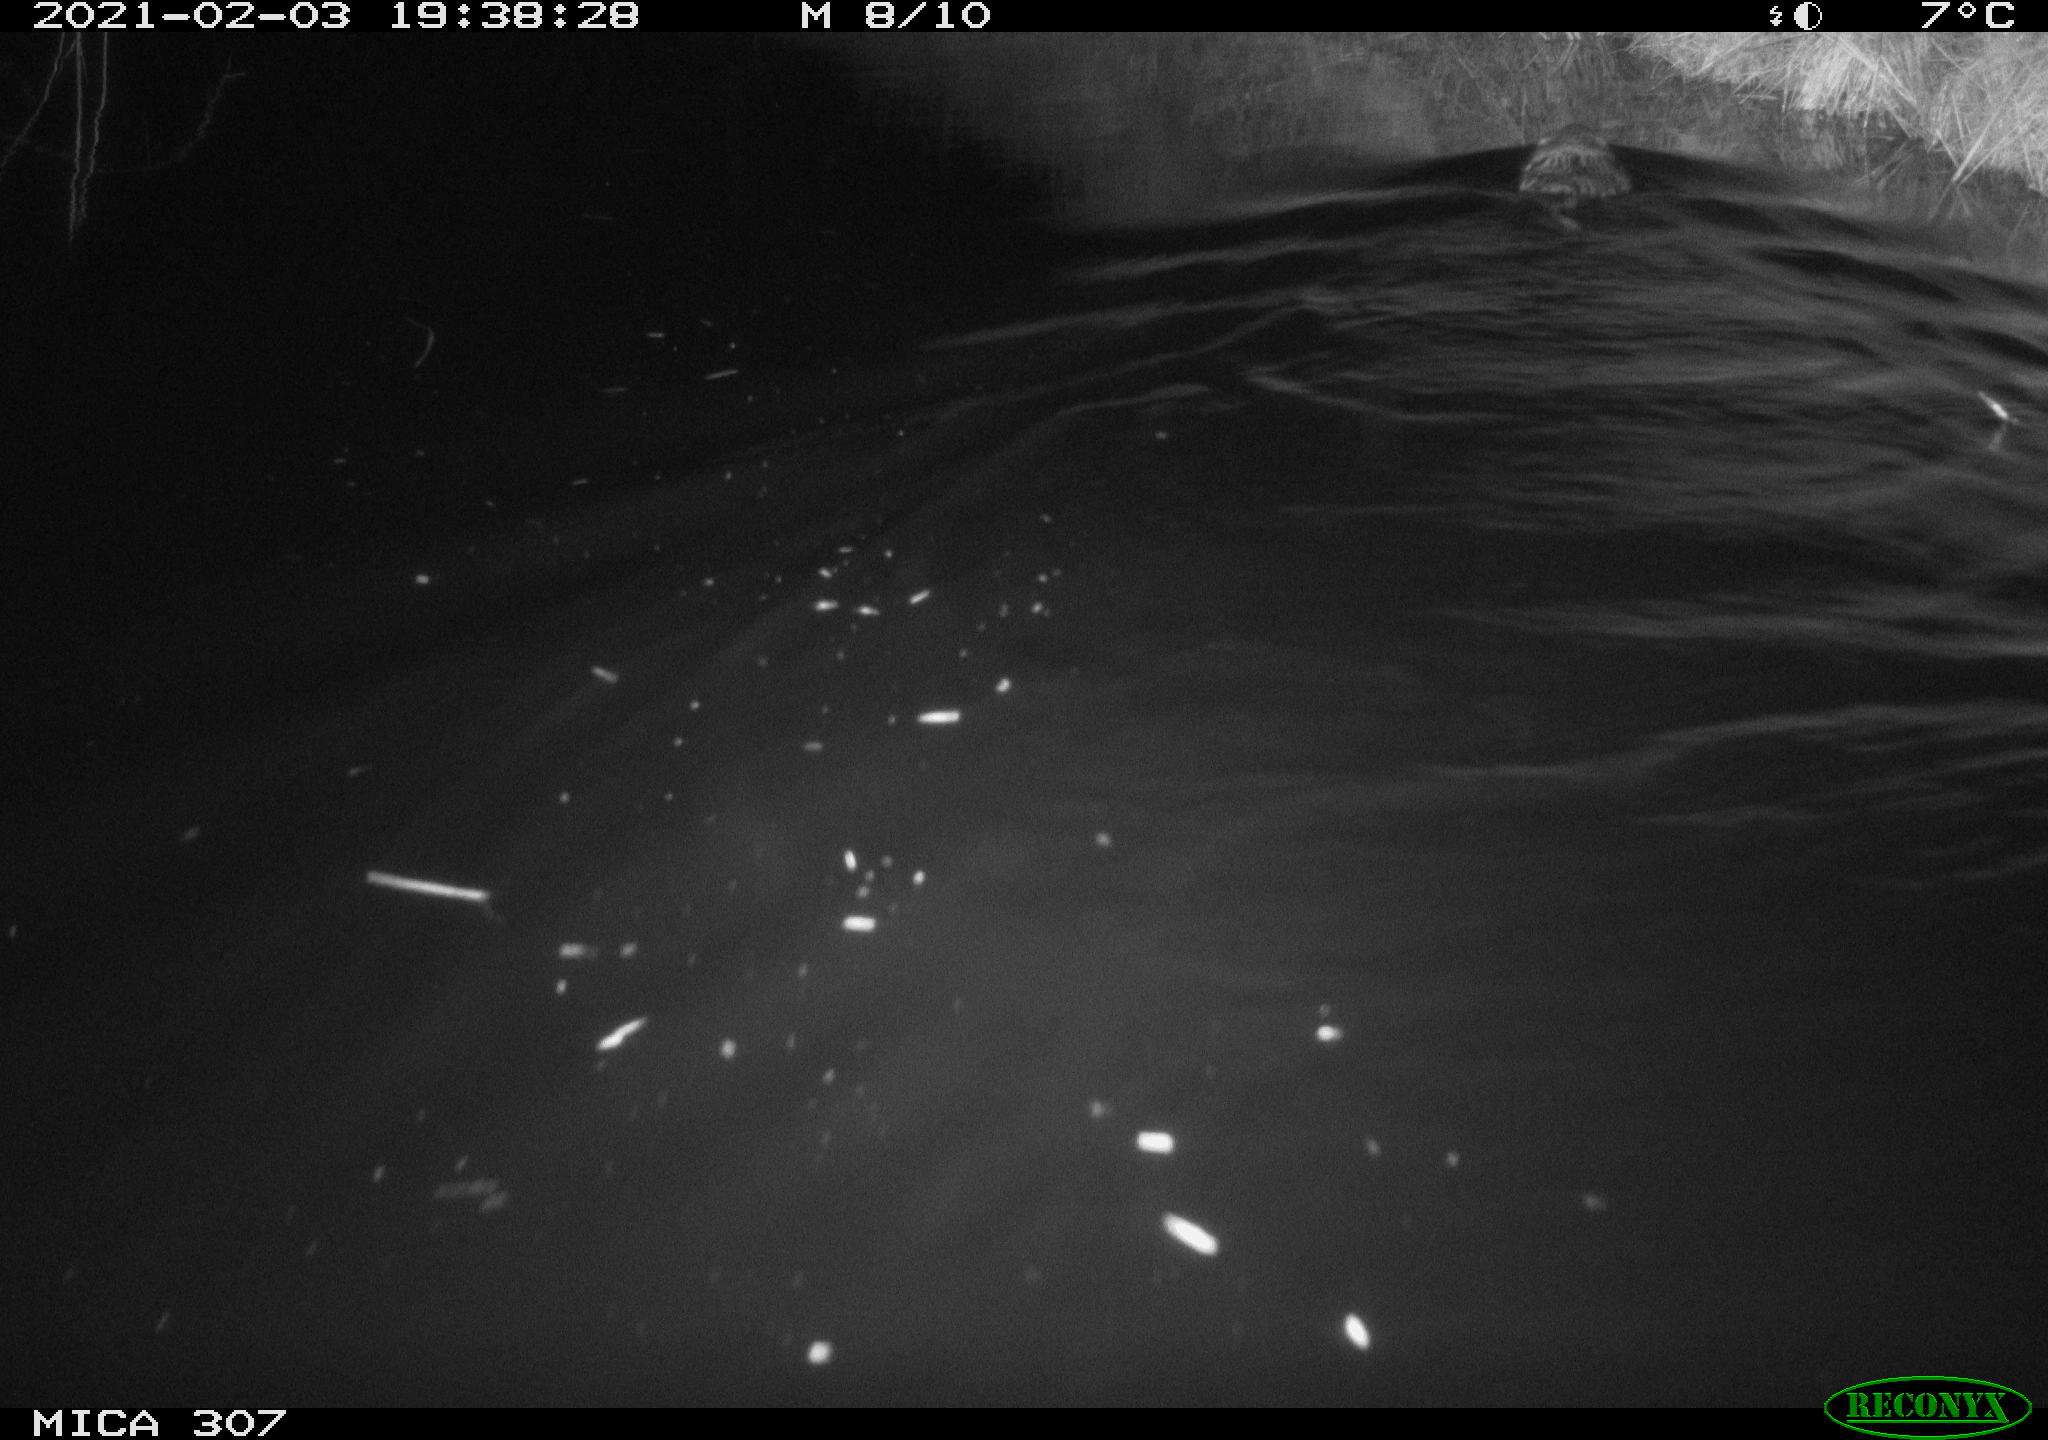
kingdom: Animalia
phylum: Chordata
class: Mammalia
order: Rodentia
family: Cricetidae
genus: Ondatra
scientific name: Ondatra zibethicus
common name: Muskrat
